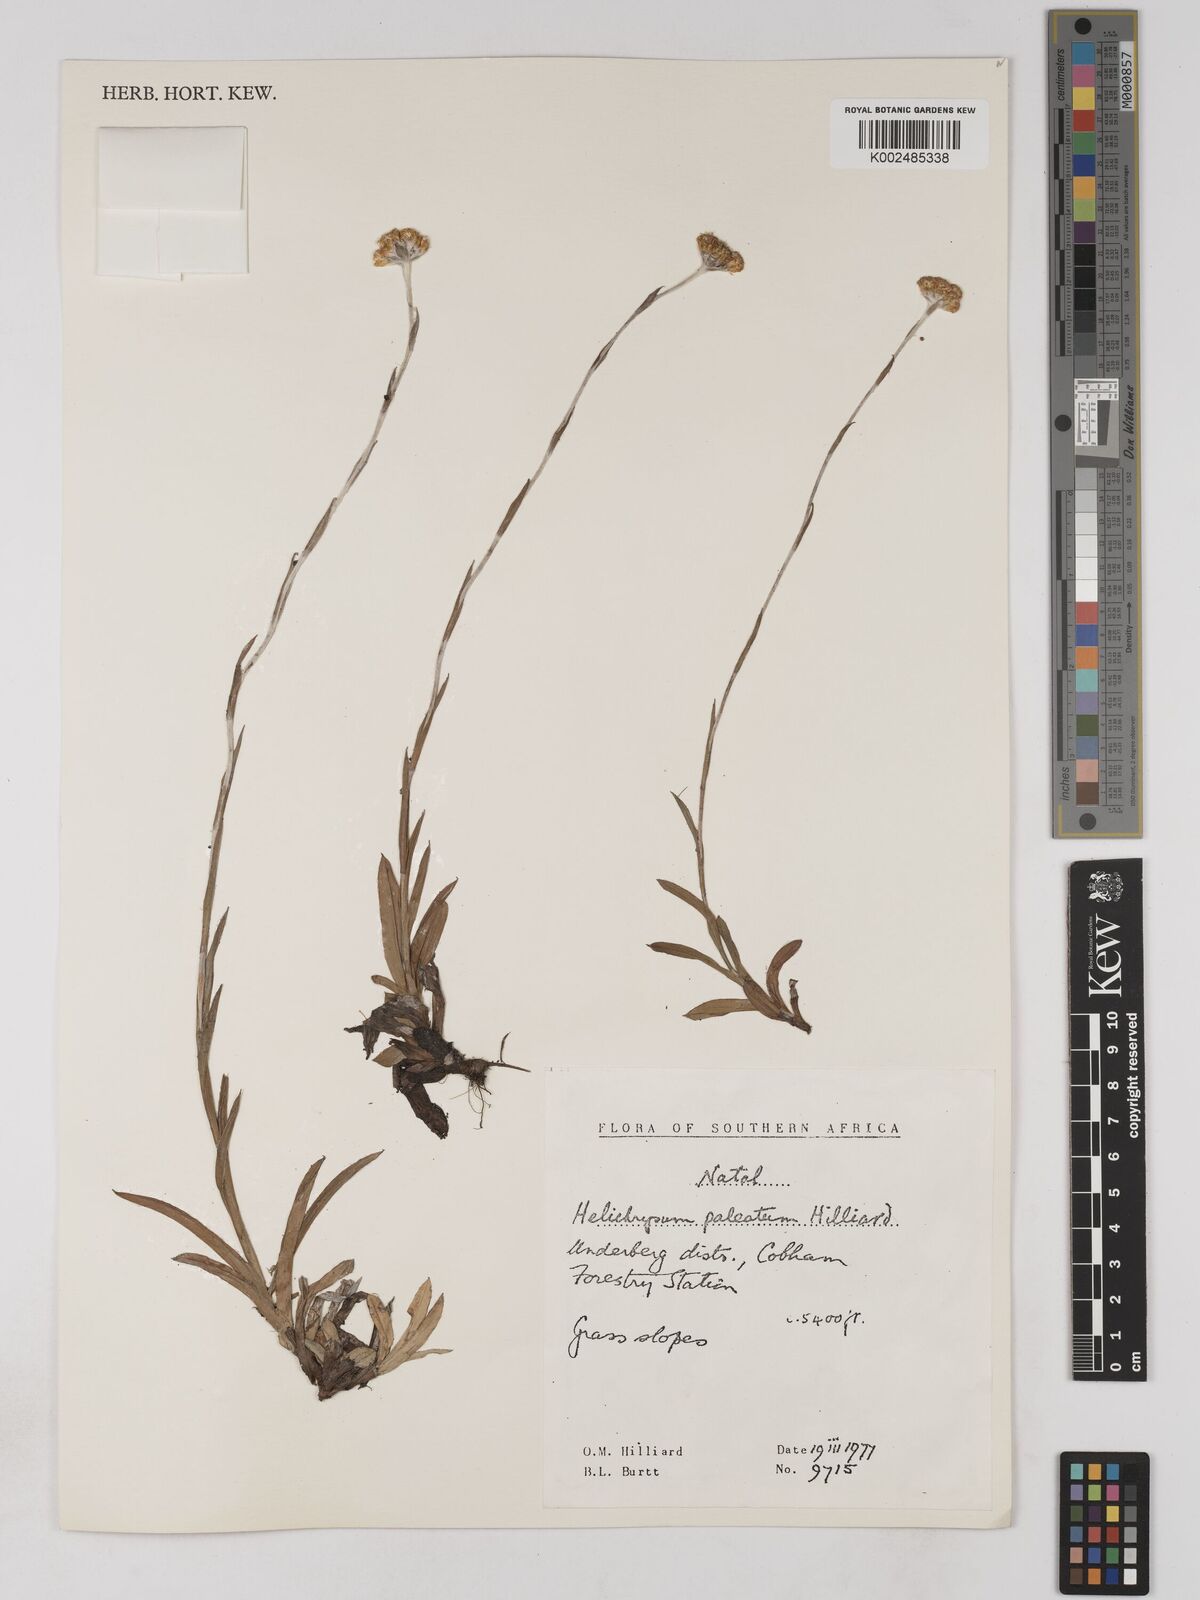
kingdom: Plantae
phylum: Tracheophyta
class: Magnoliopsida
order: Asterales
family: Asteraceae
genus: Helichrysum
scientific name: Helichrysum paleatum
